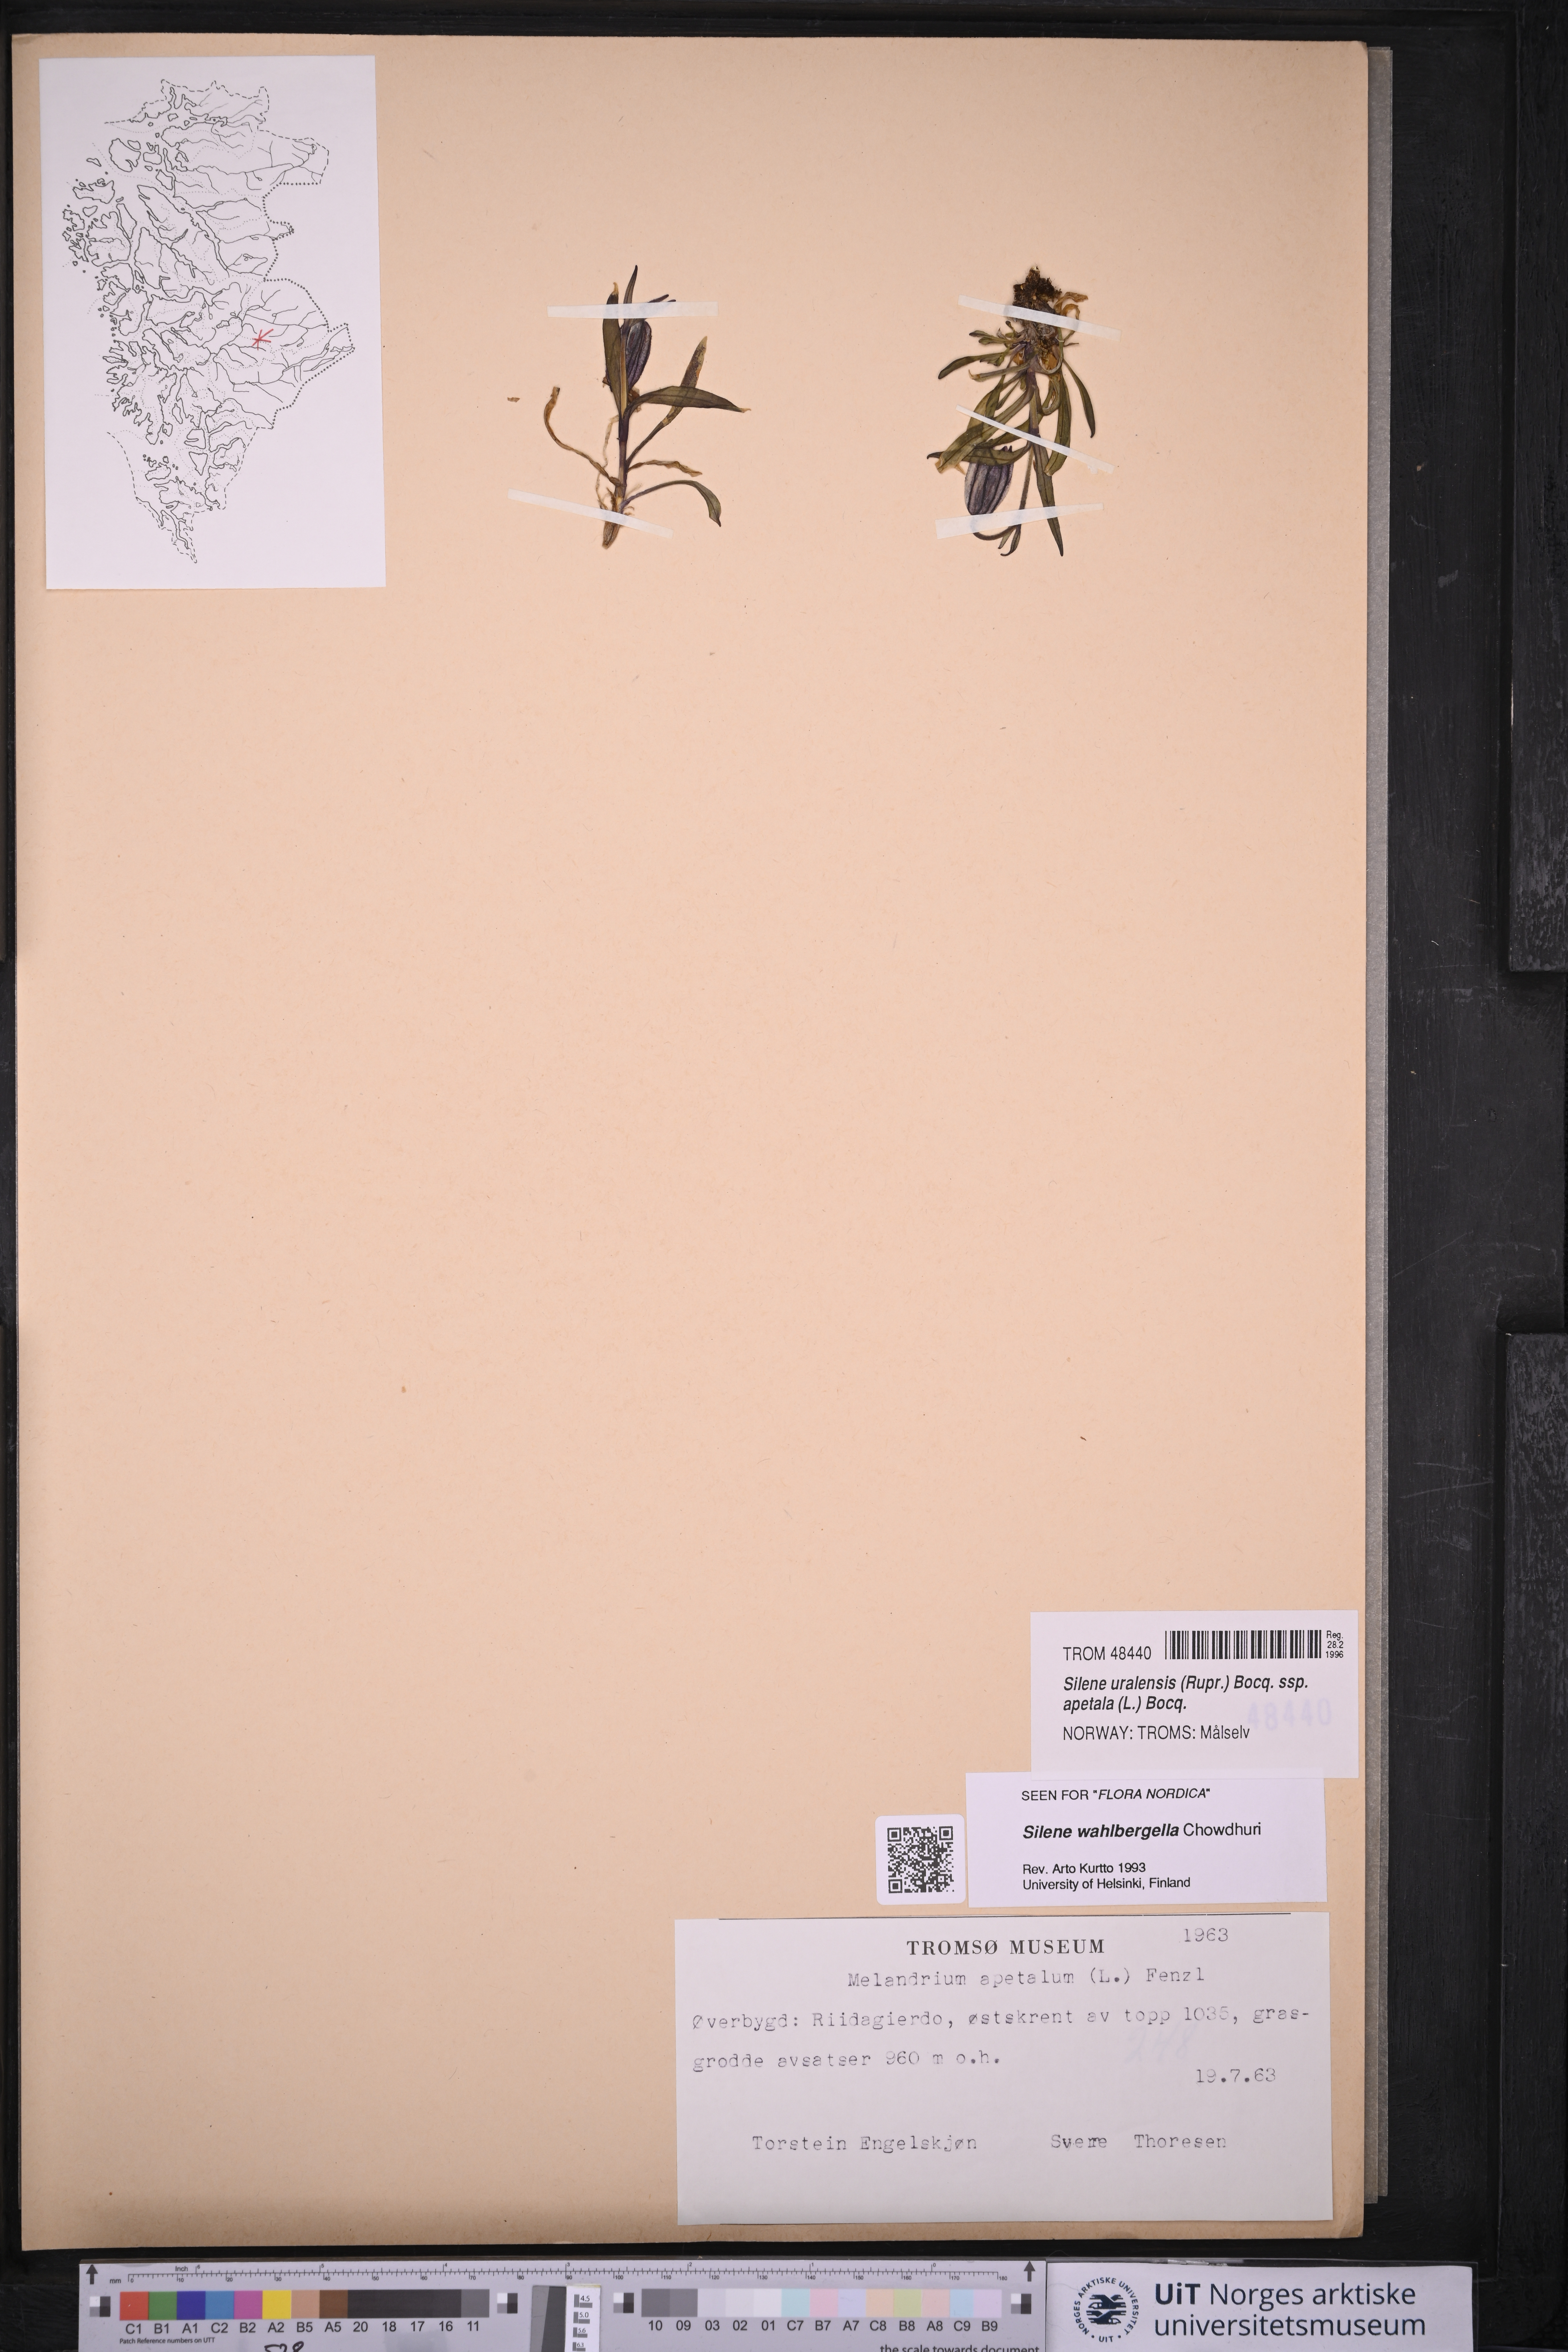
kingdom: Plantae
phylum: Tracheophyta
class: Magnoliopsida
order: Caryophyllales
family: Caryophyllaceae
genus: Silene
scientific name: Silene wahlbergella
